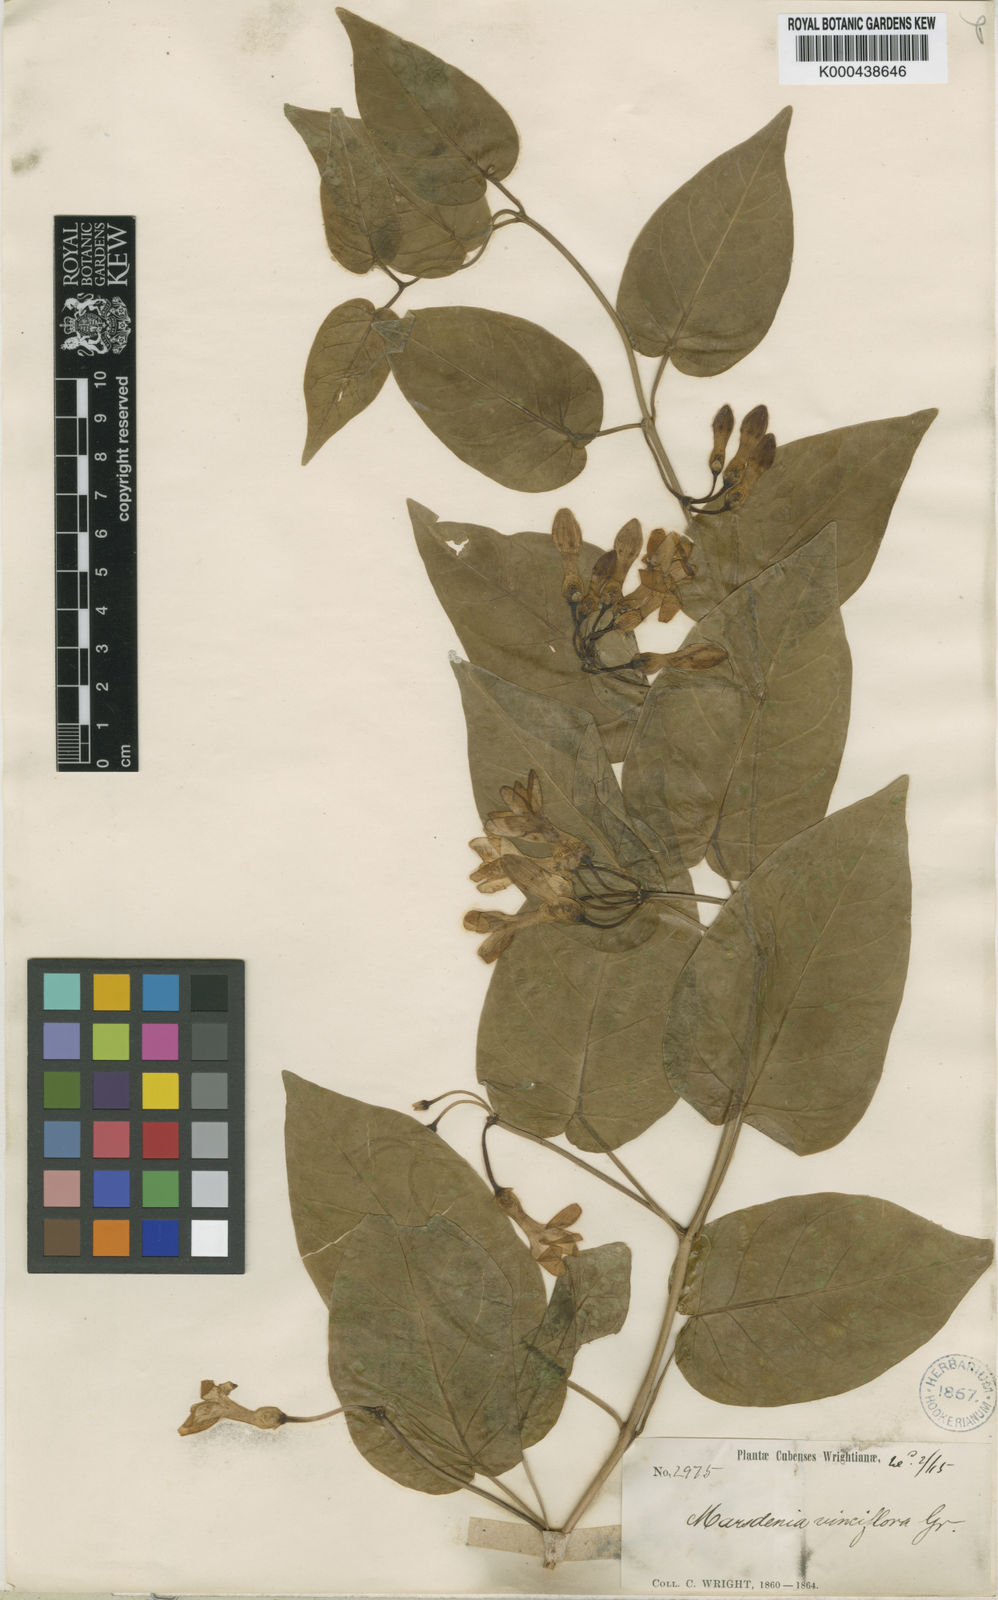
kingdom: Plantae
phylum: Tracheophyta
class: Magnoliopsida
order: Gentianales
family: Apocynaceae
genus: Ruehssia
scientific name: Ruehssia vinciflora
